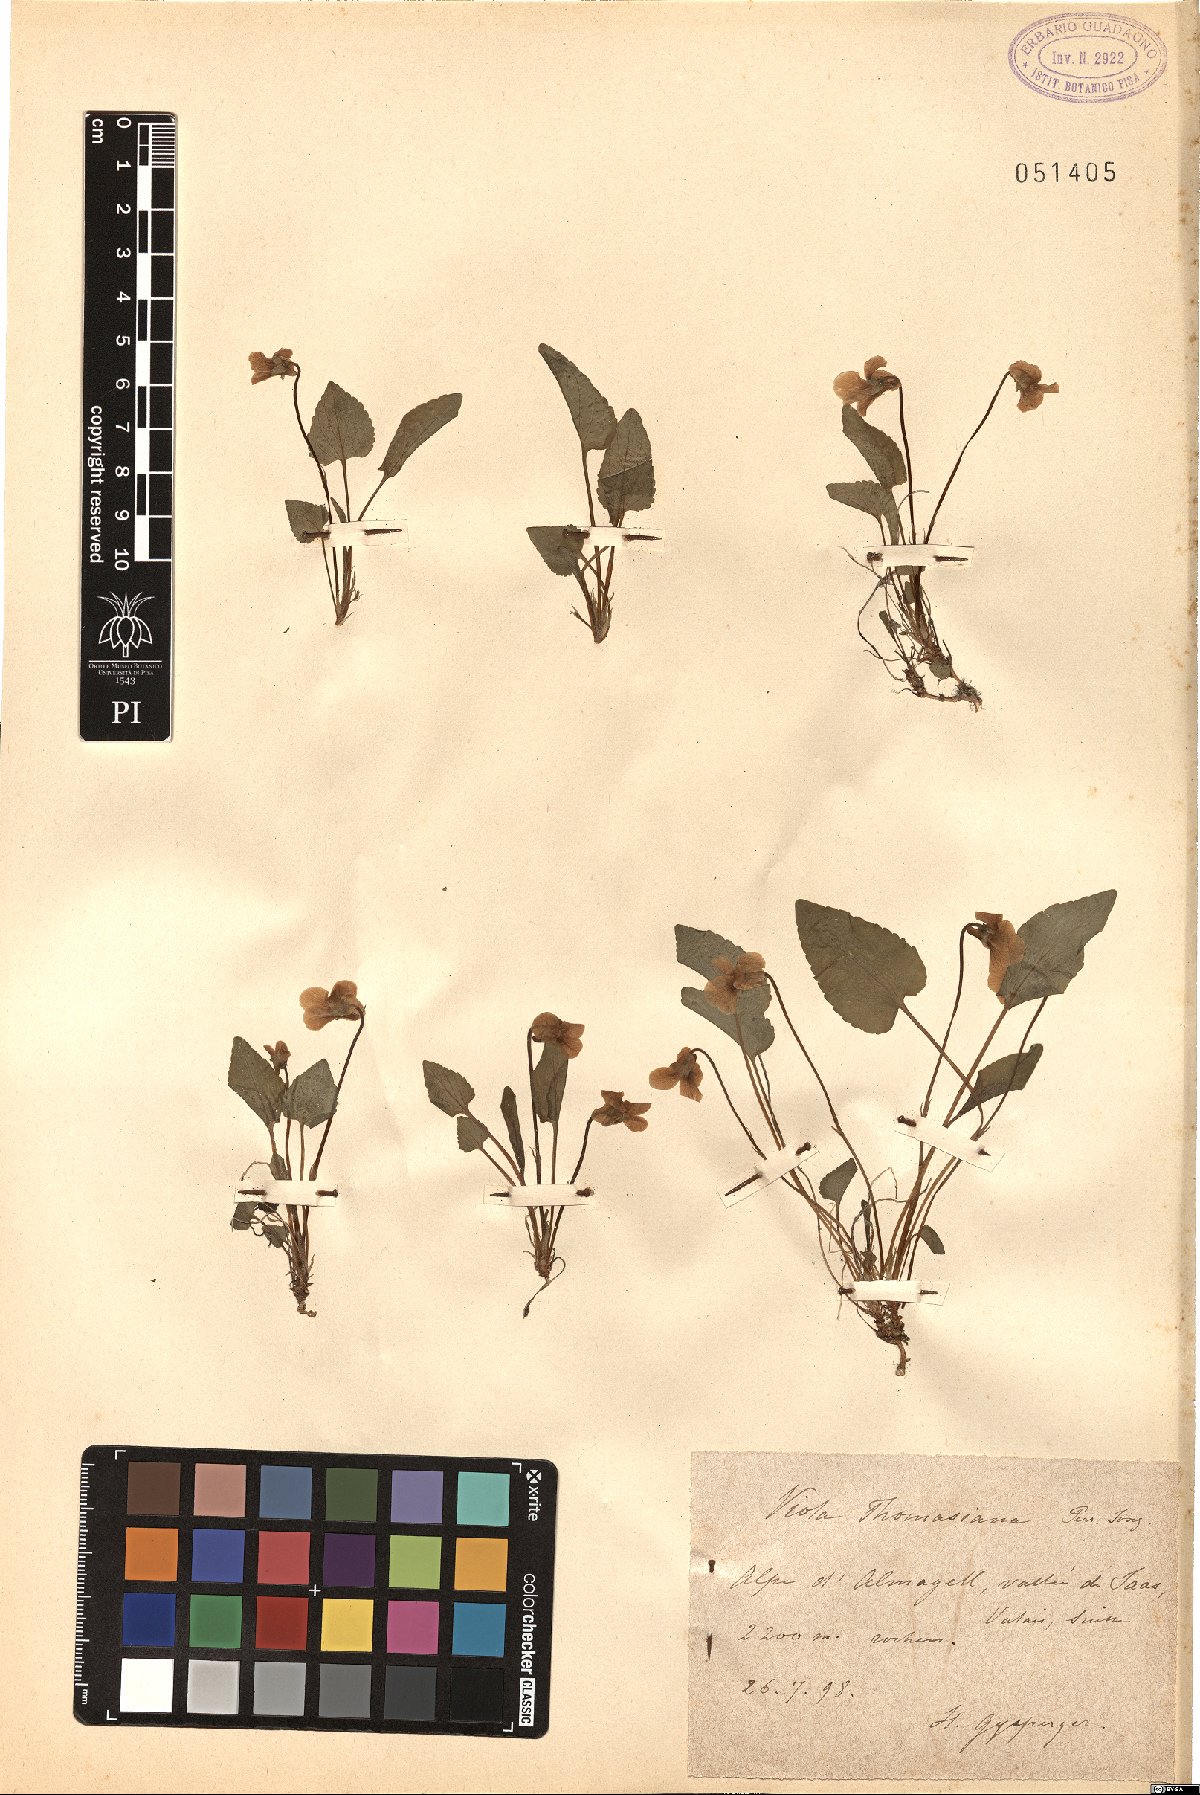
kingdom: Plantae
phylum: Tracheophyta
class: Magnoliopsida
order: Malpighiales
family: Violaceae
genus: Viola
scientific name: Viola thomasiana
